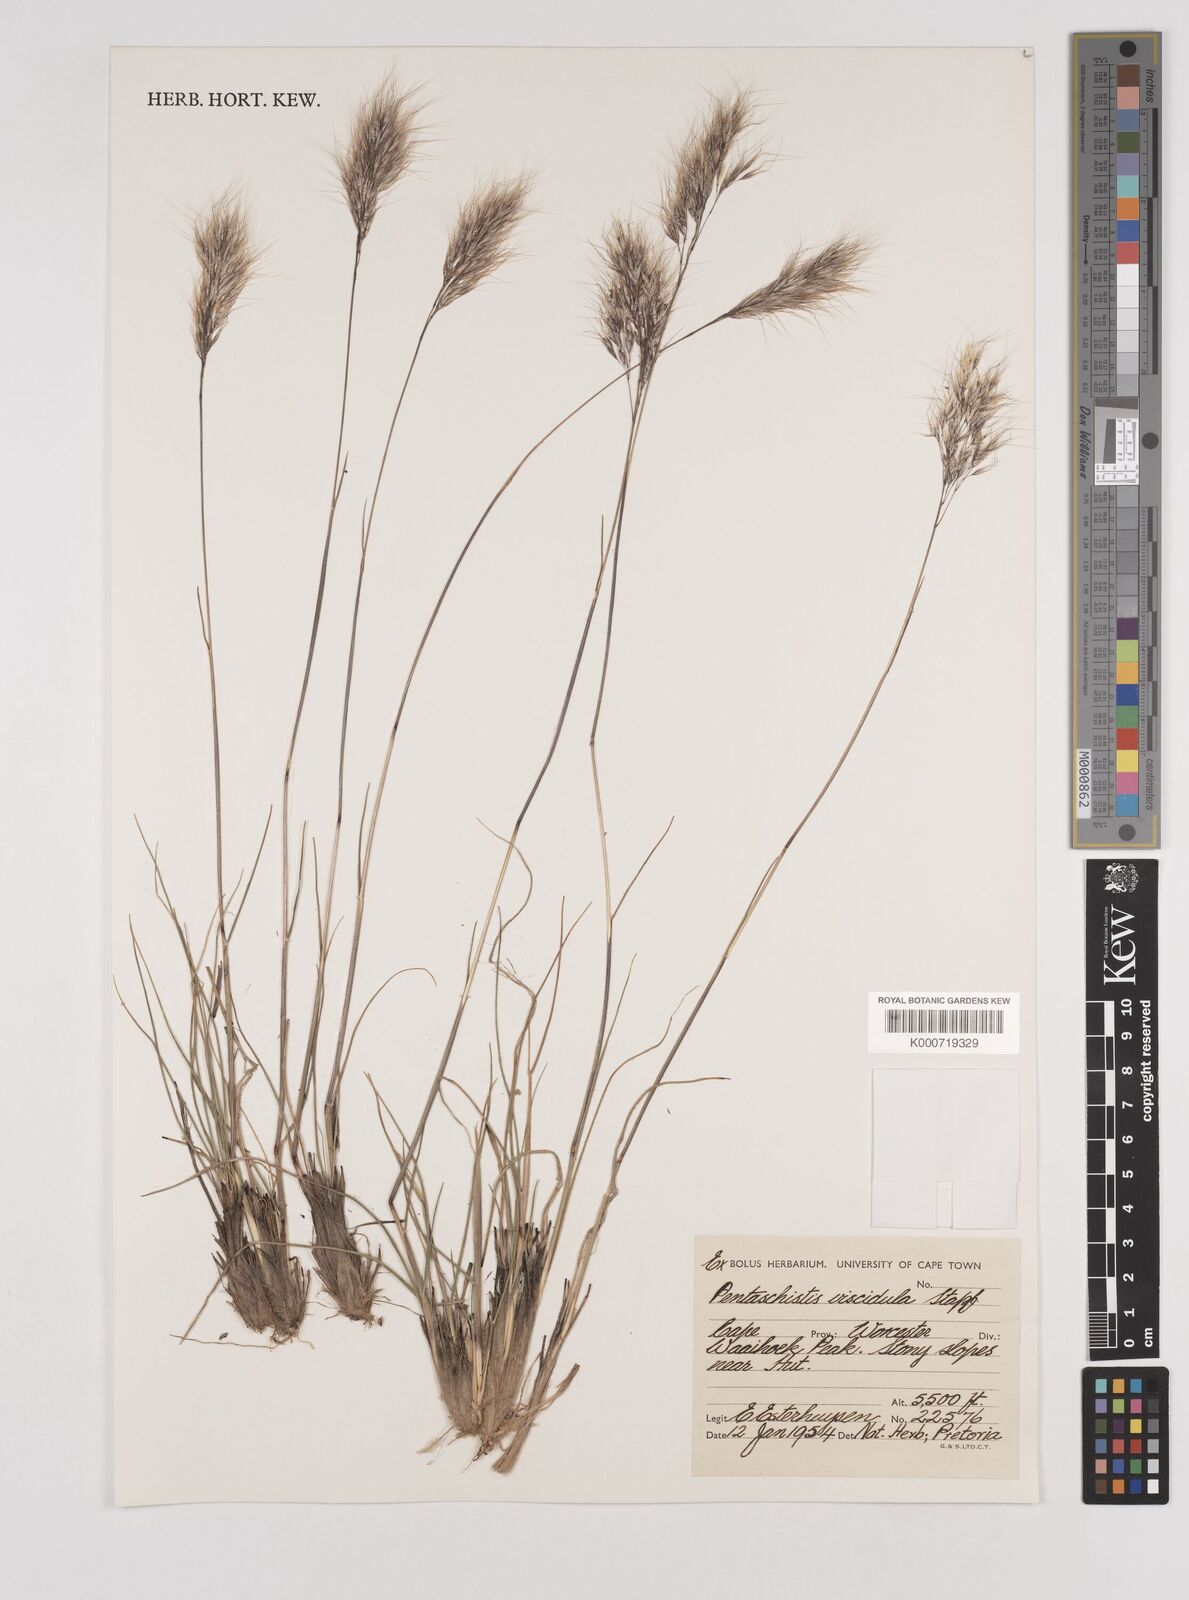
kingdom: Plantae
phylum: Tracheophyta
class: Liliopsida
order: Poales
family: Poaceae
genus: Pentameris
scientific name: Pentameris viscidula
